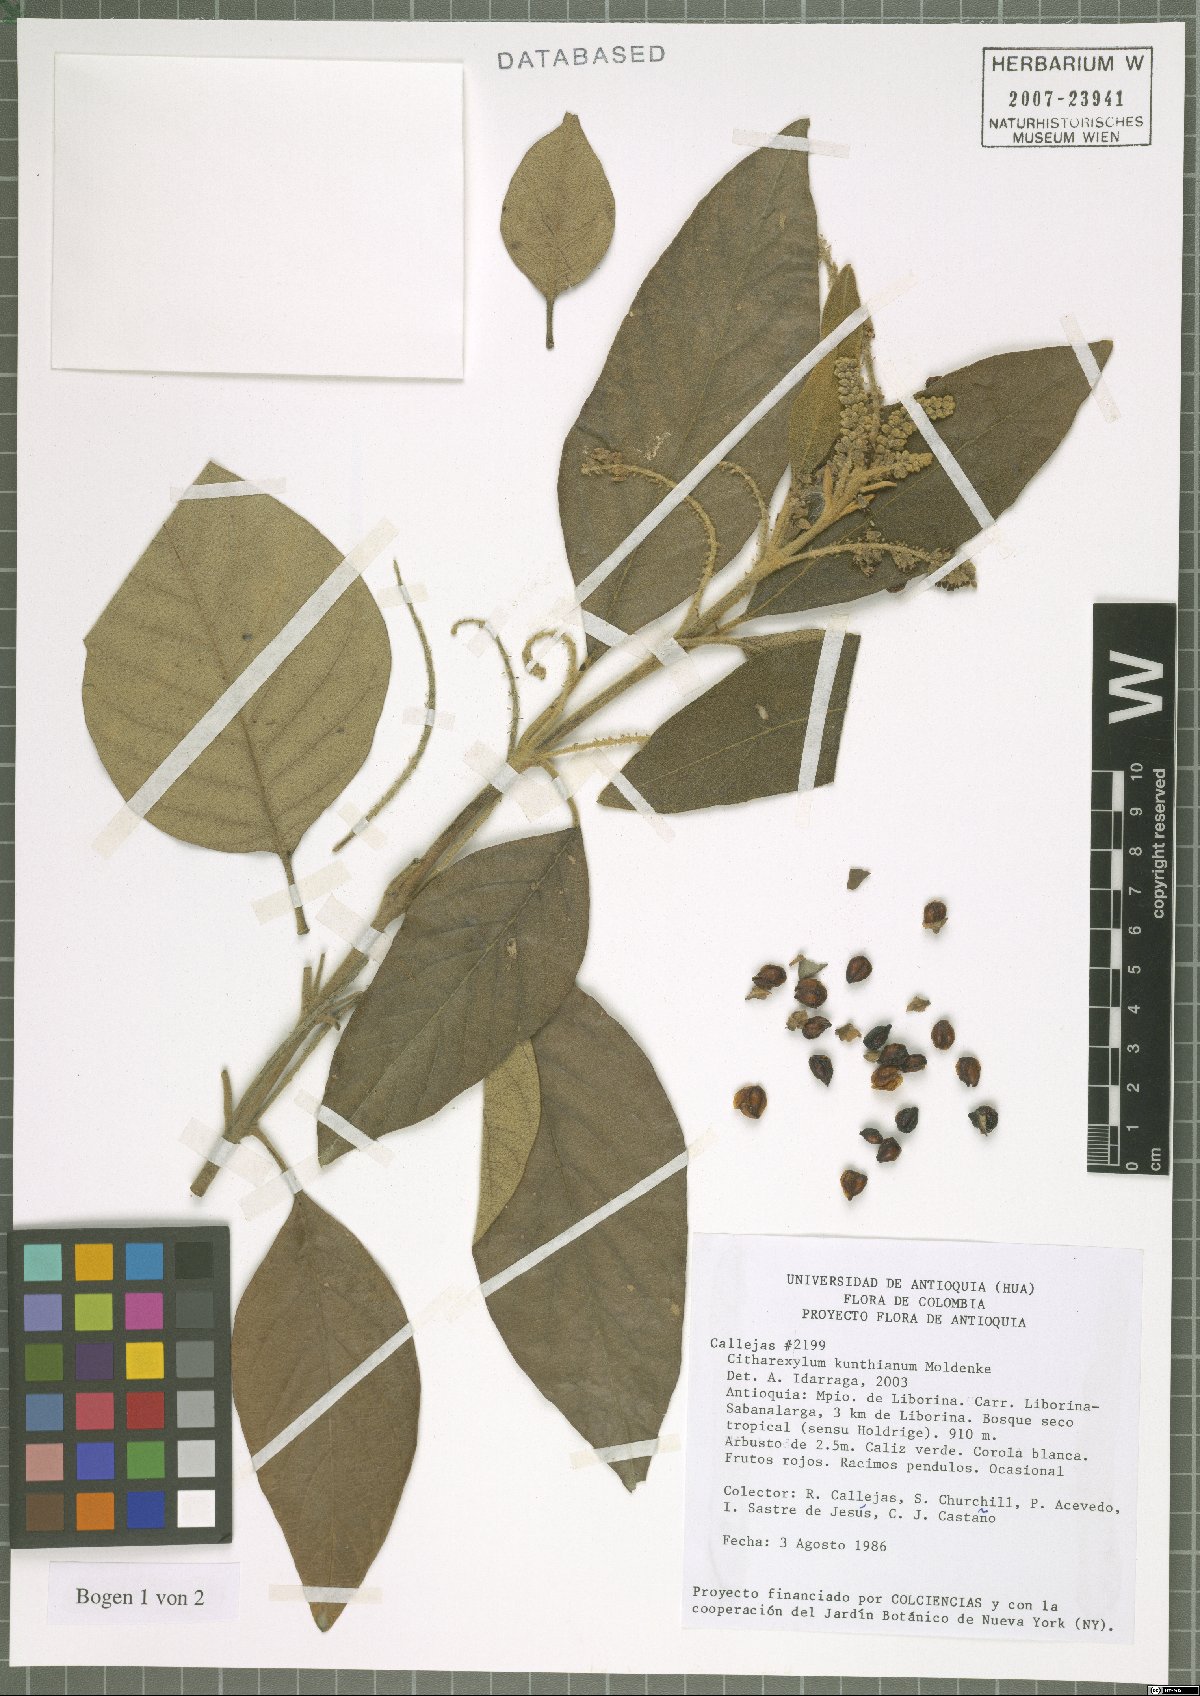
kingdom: Plantae
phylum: Tracheophyta
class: Magnoliopsida
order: Lamiales
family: Verbenaceae
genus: Citharexylum
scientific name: Citharexylum kunthianum
